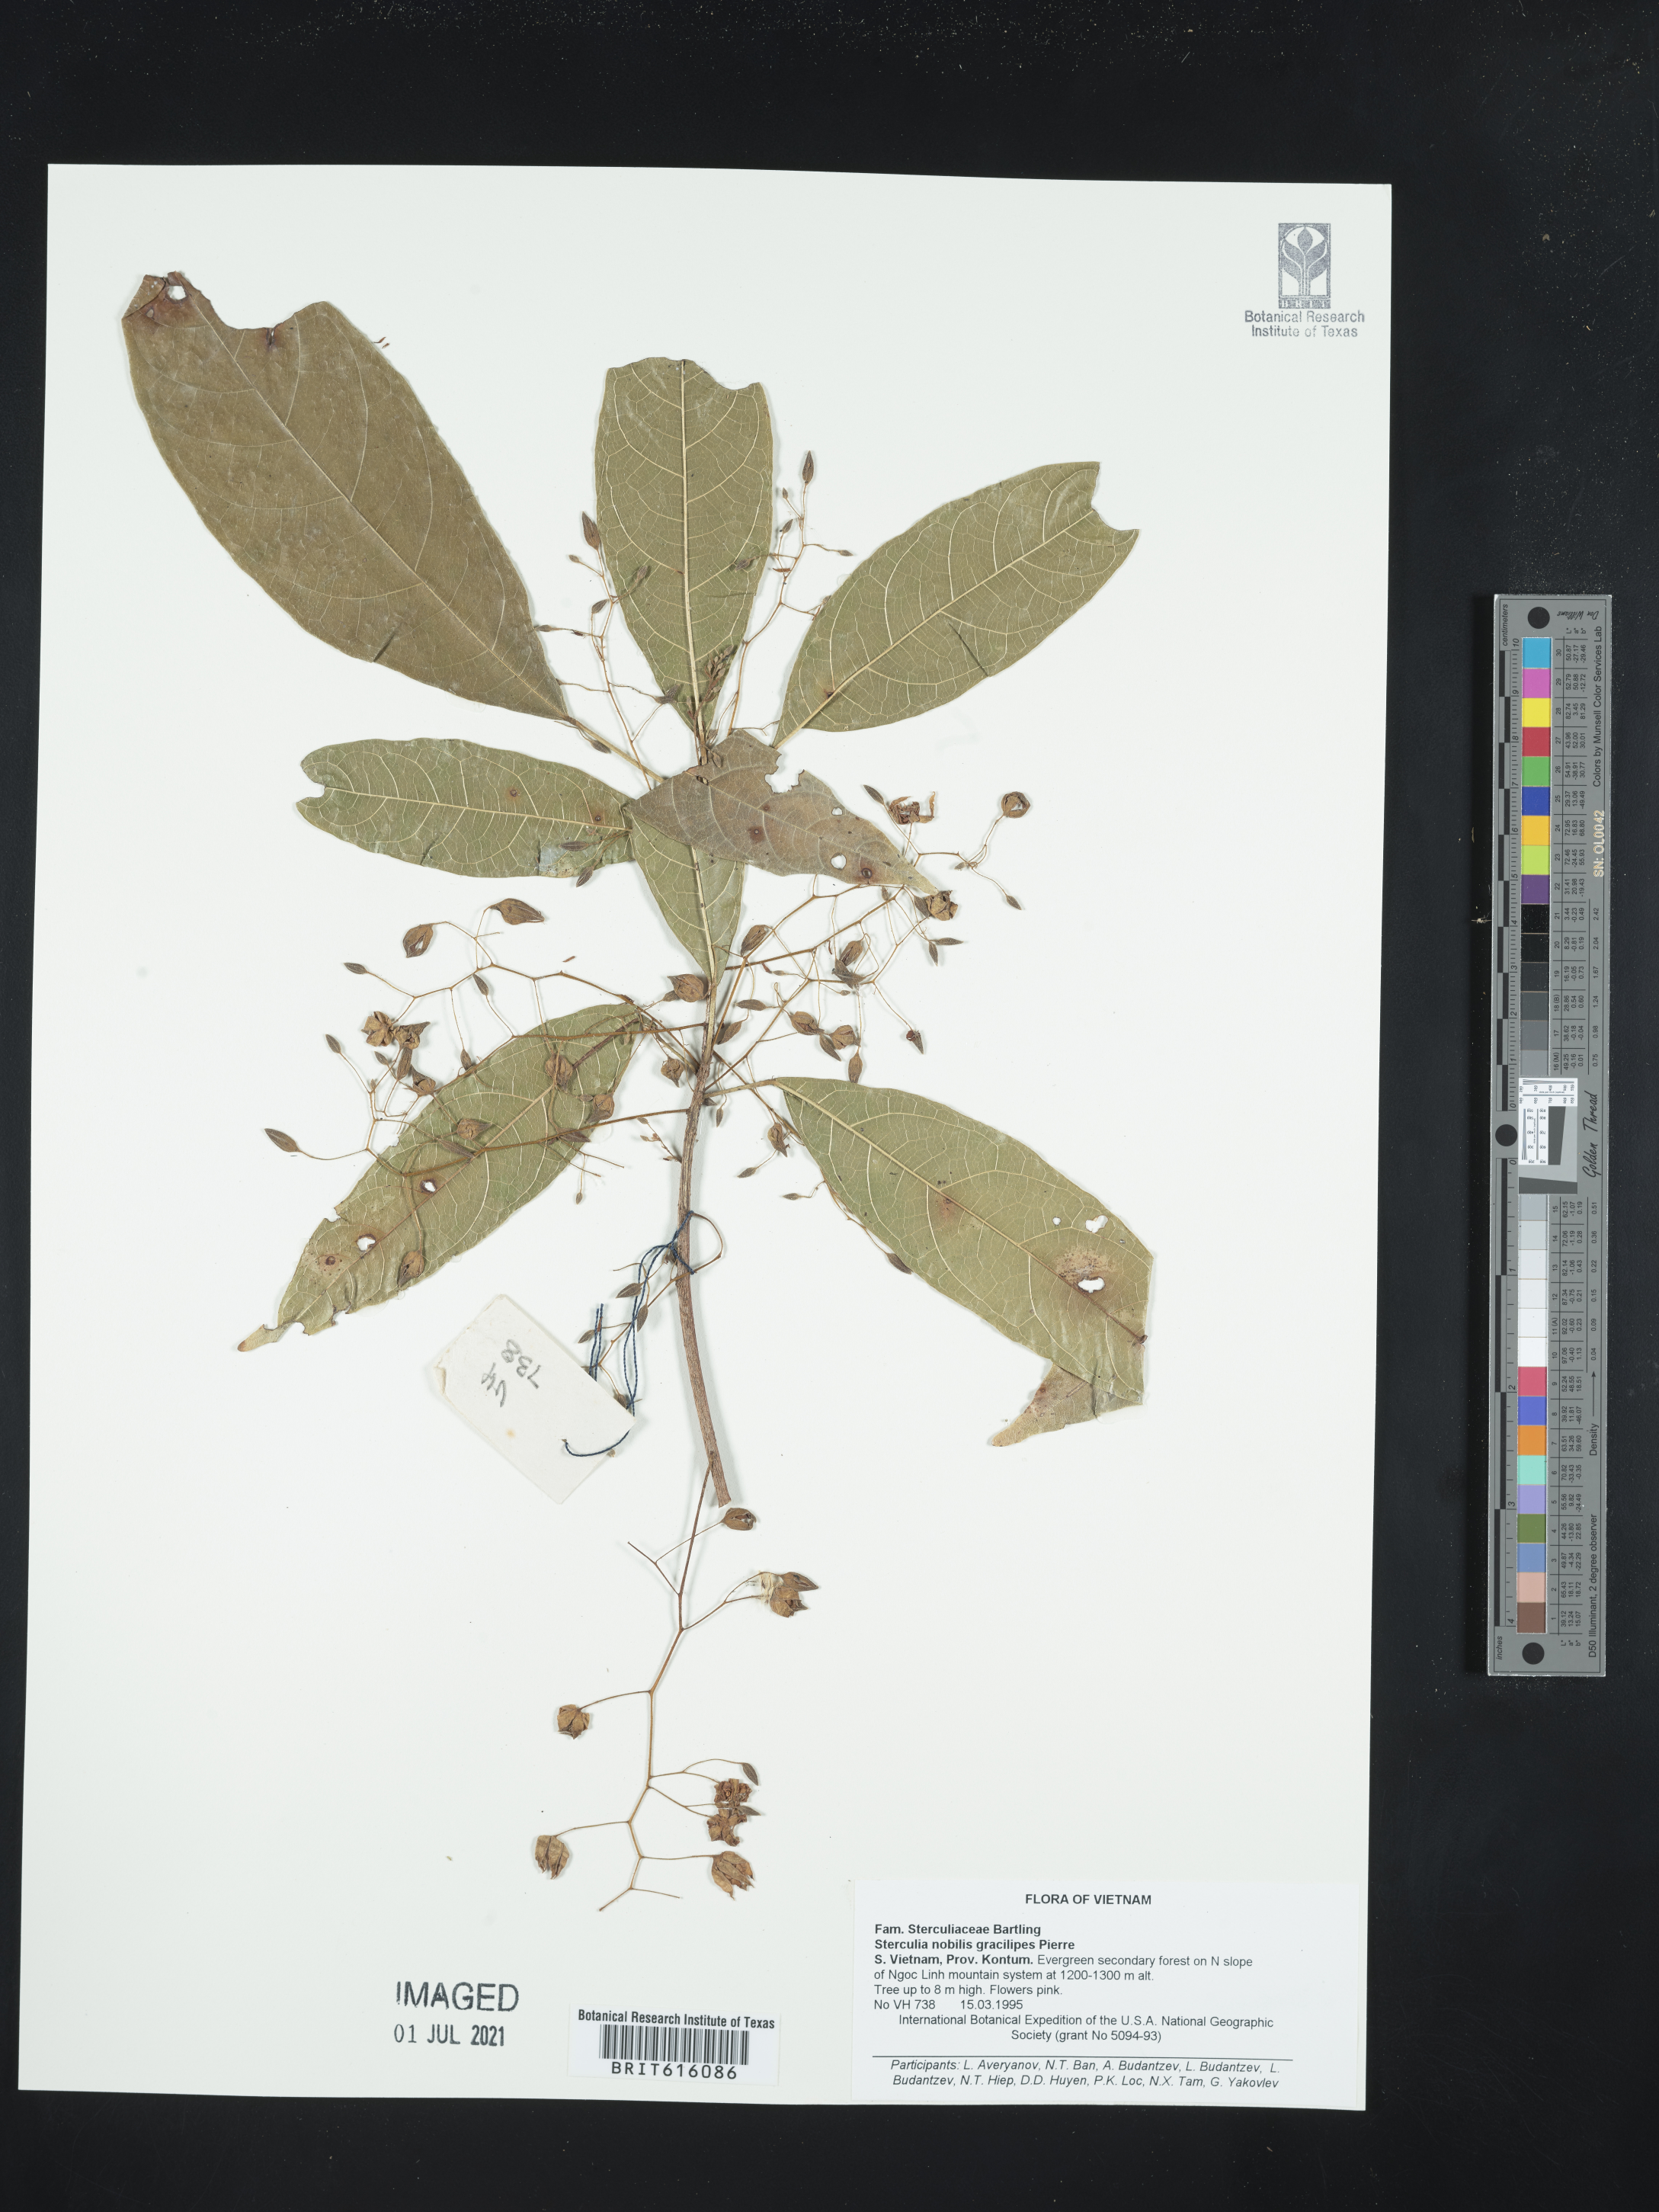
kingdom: Plantae
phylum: Tracheophyta
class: Magnoliopsida
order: Malvales
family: Malvaceae
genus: Sterculia
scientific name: Sterculia monosperma
